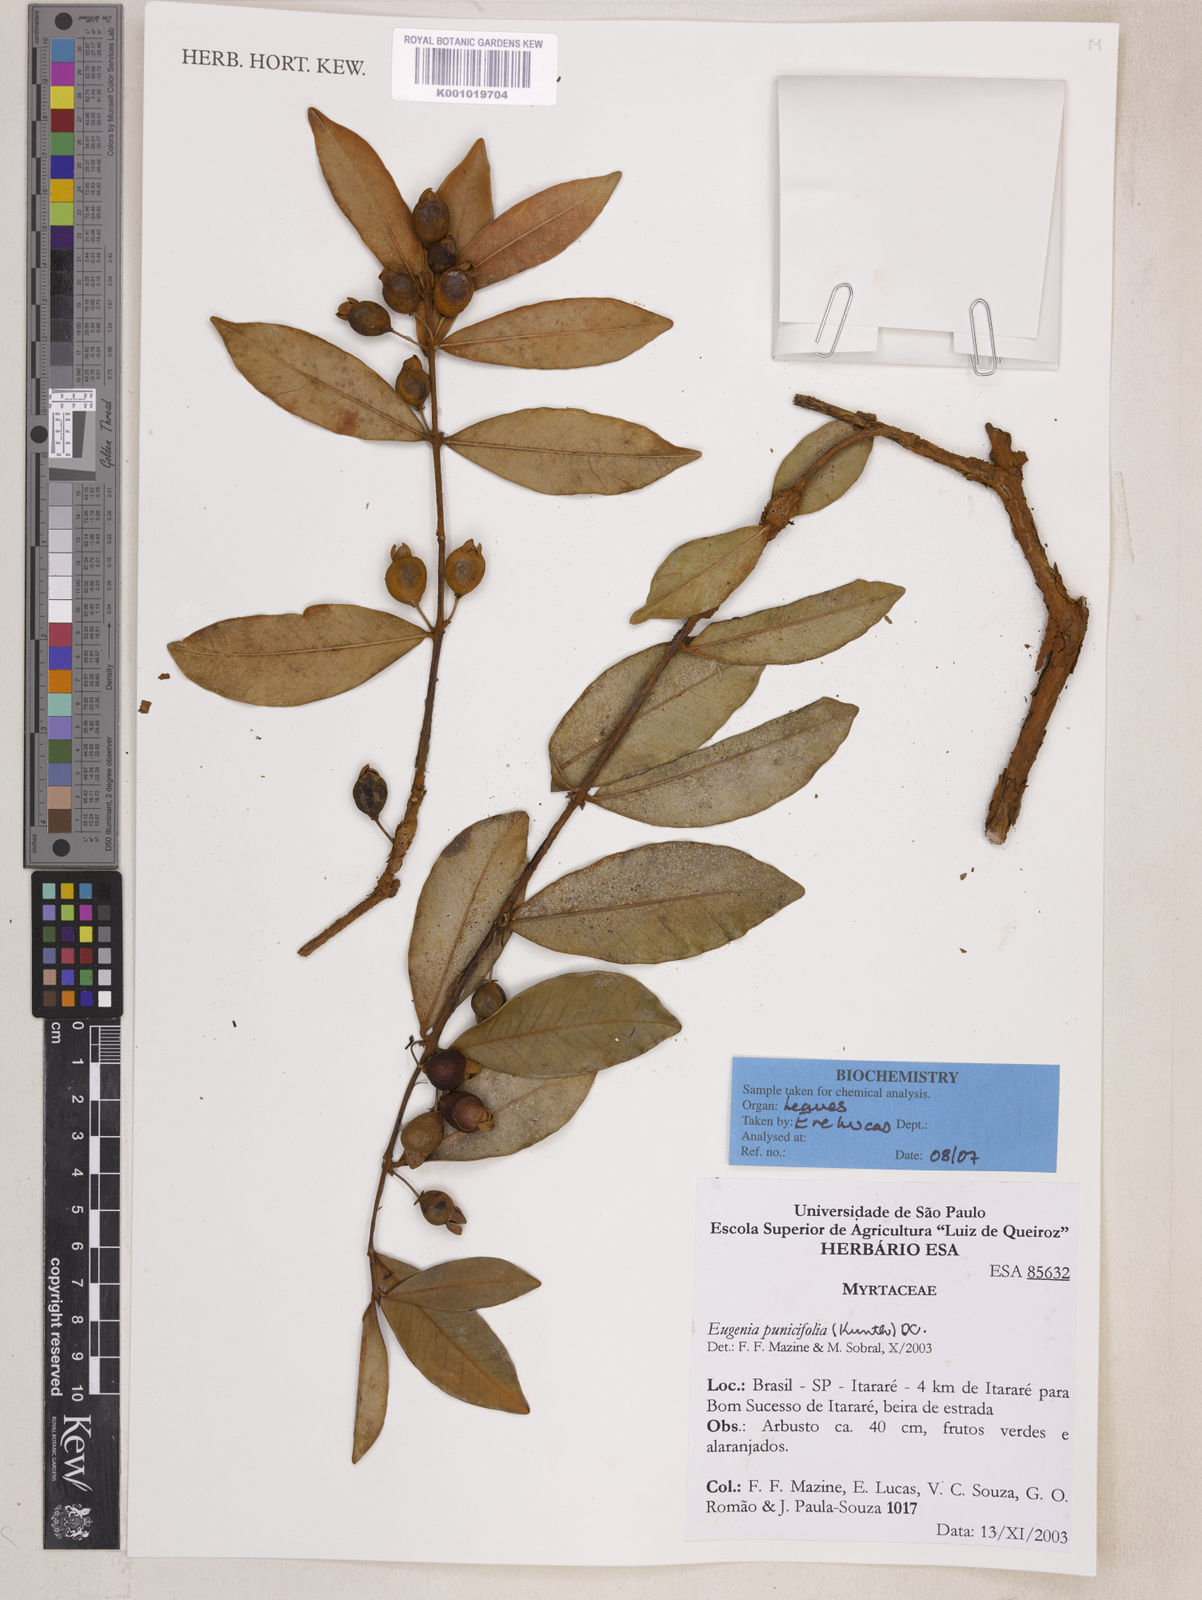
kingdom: Plantae
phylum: Tracheophyta
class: Magnoliopsida
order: Myrtales
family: Myrtaceae
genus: Eugenia
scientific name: Eugenia punicifolia
